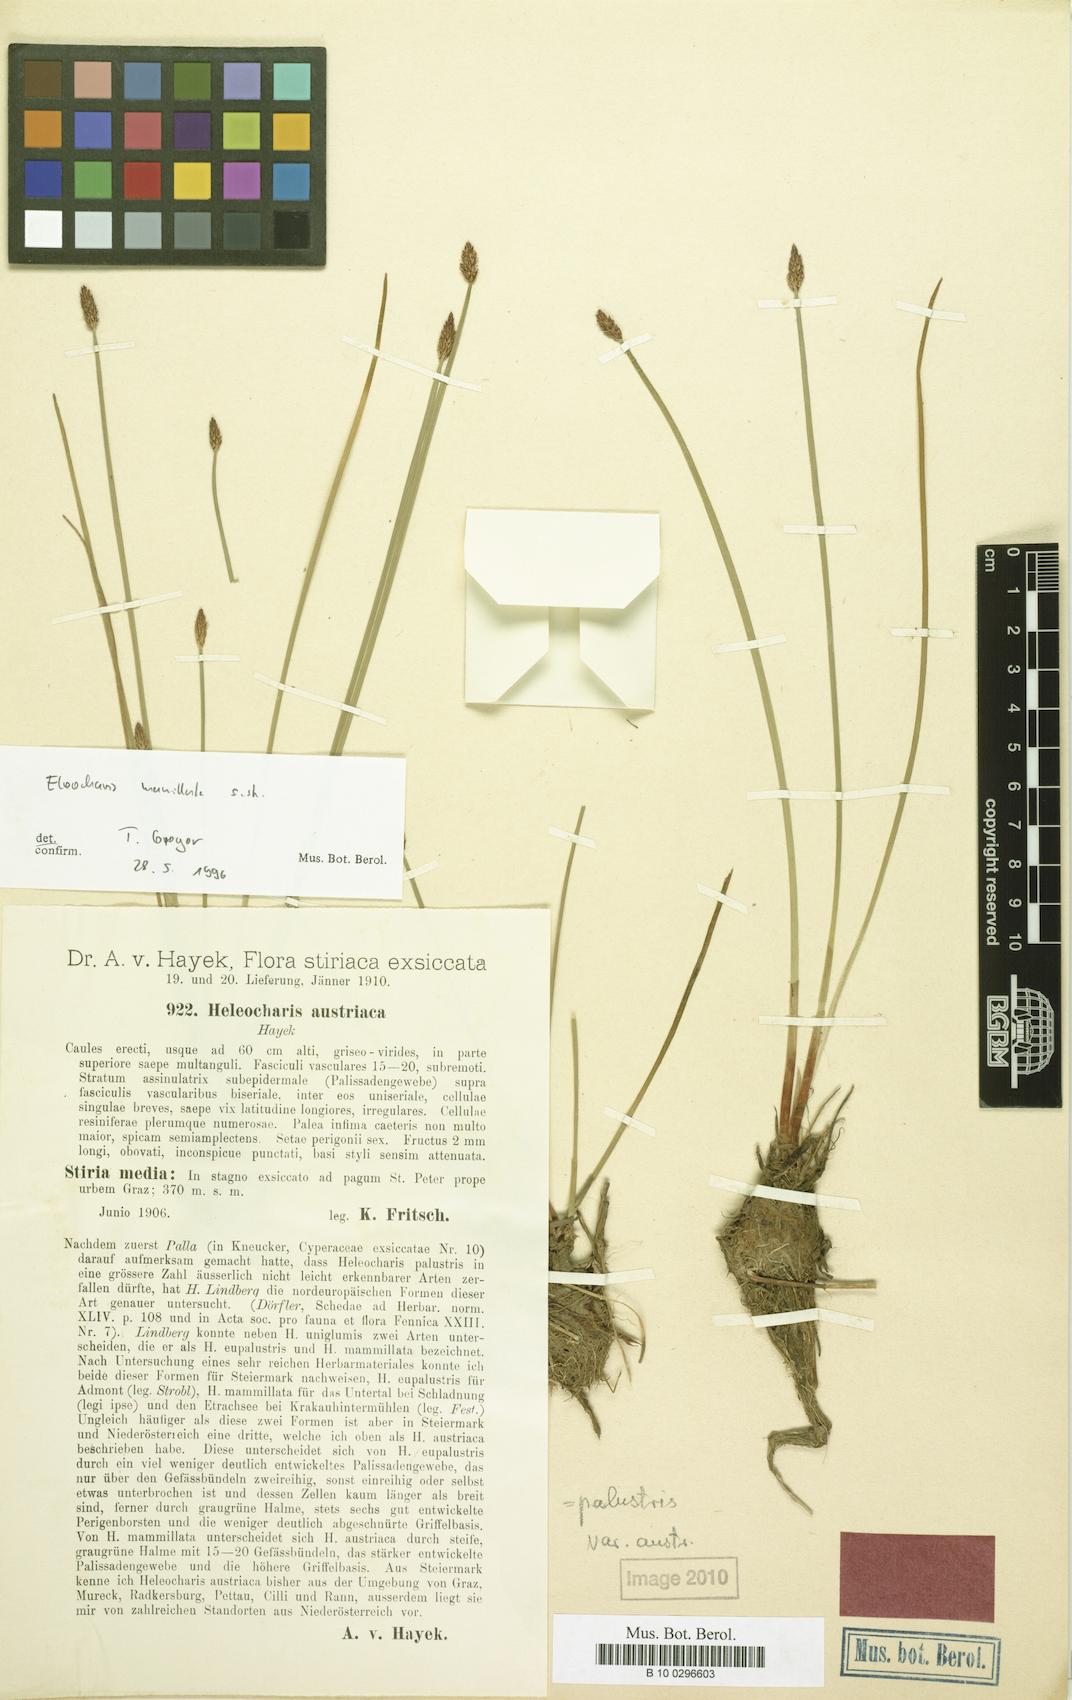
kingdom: Plantae
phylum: Tracheophyta
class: Liliopsida
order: Poales
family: Cyperaceae
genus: Eleocharis
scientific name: Eleocharis mamillata
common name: Northern spike-rush
